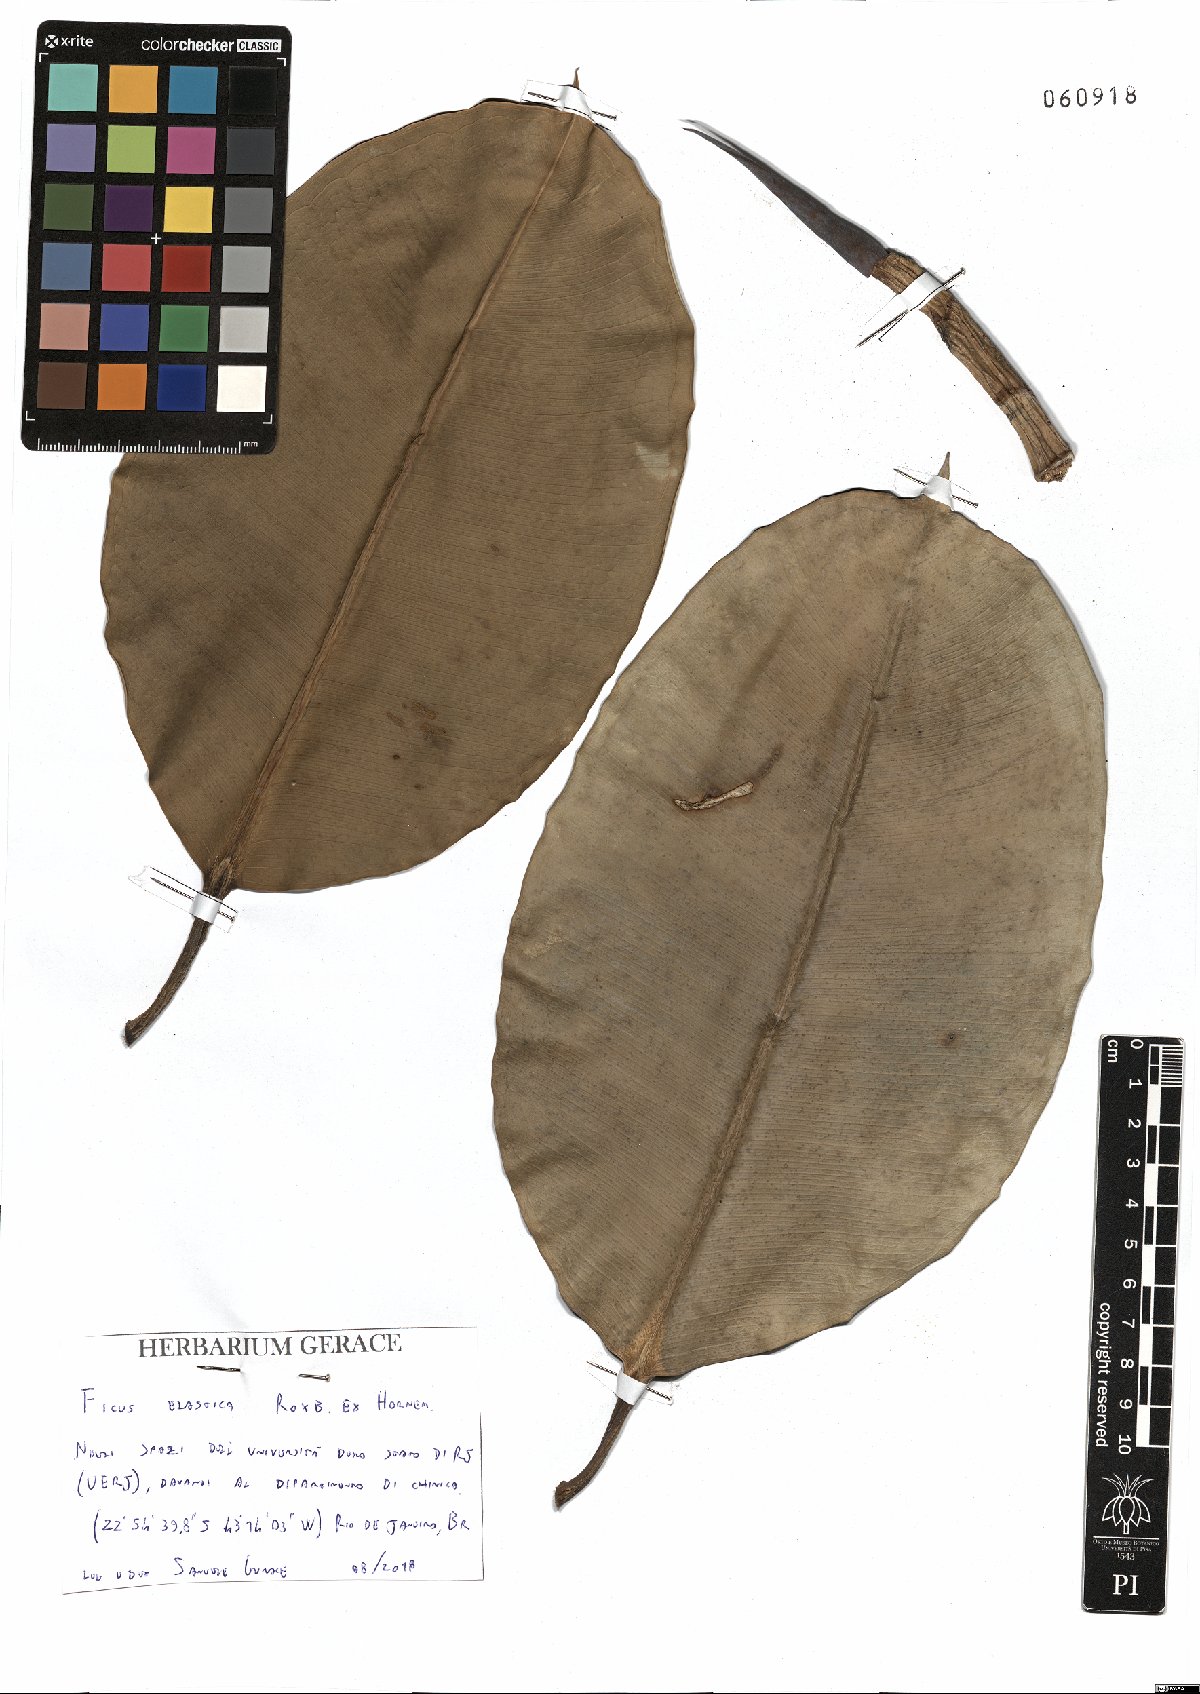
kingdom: Plantae
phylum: Tracheophyta
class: Magnoliopsida
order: Rosales
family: Moraceae
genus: Ficus
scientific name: Ficus elastica
